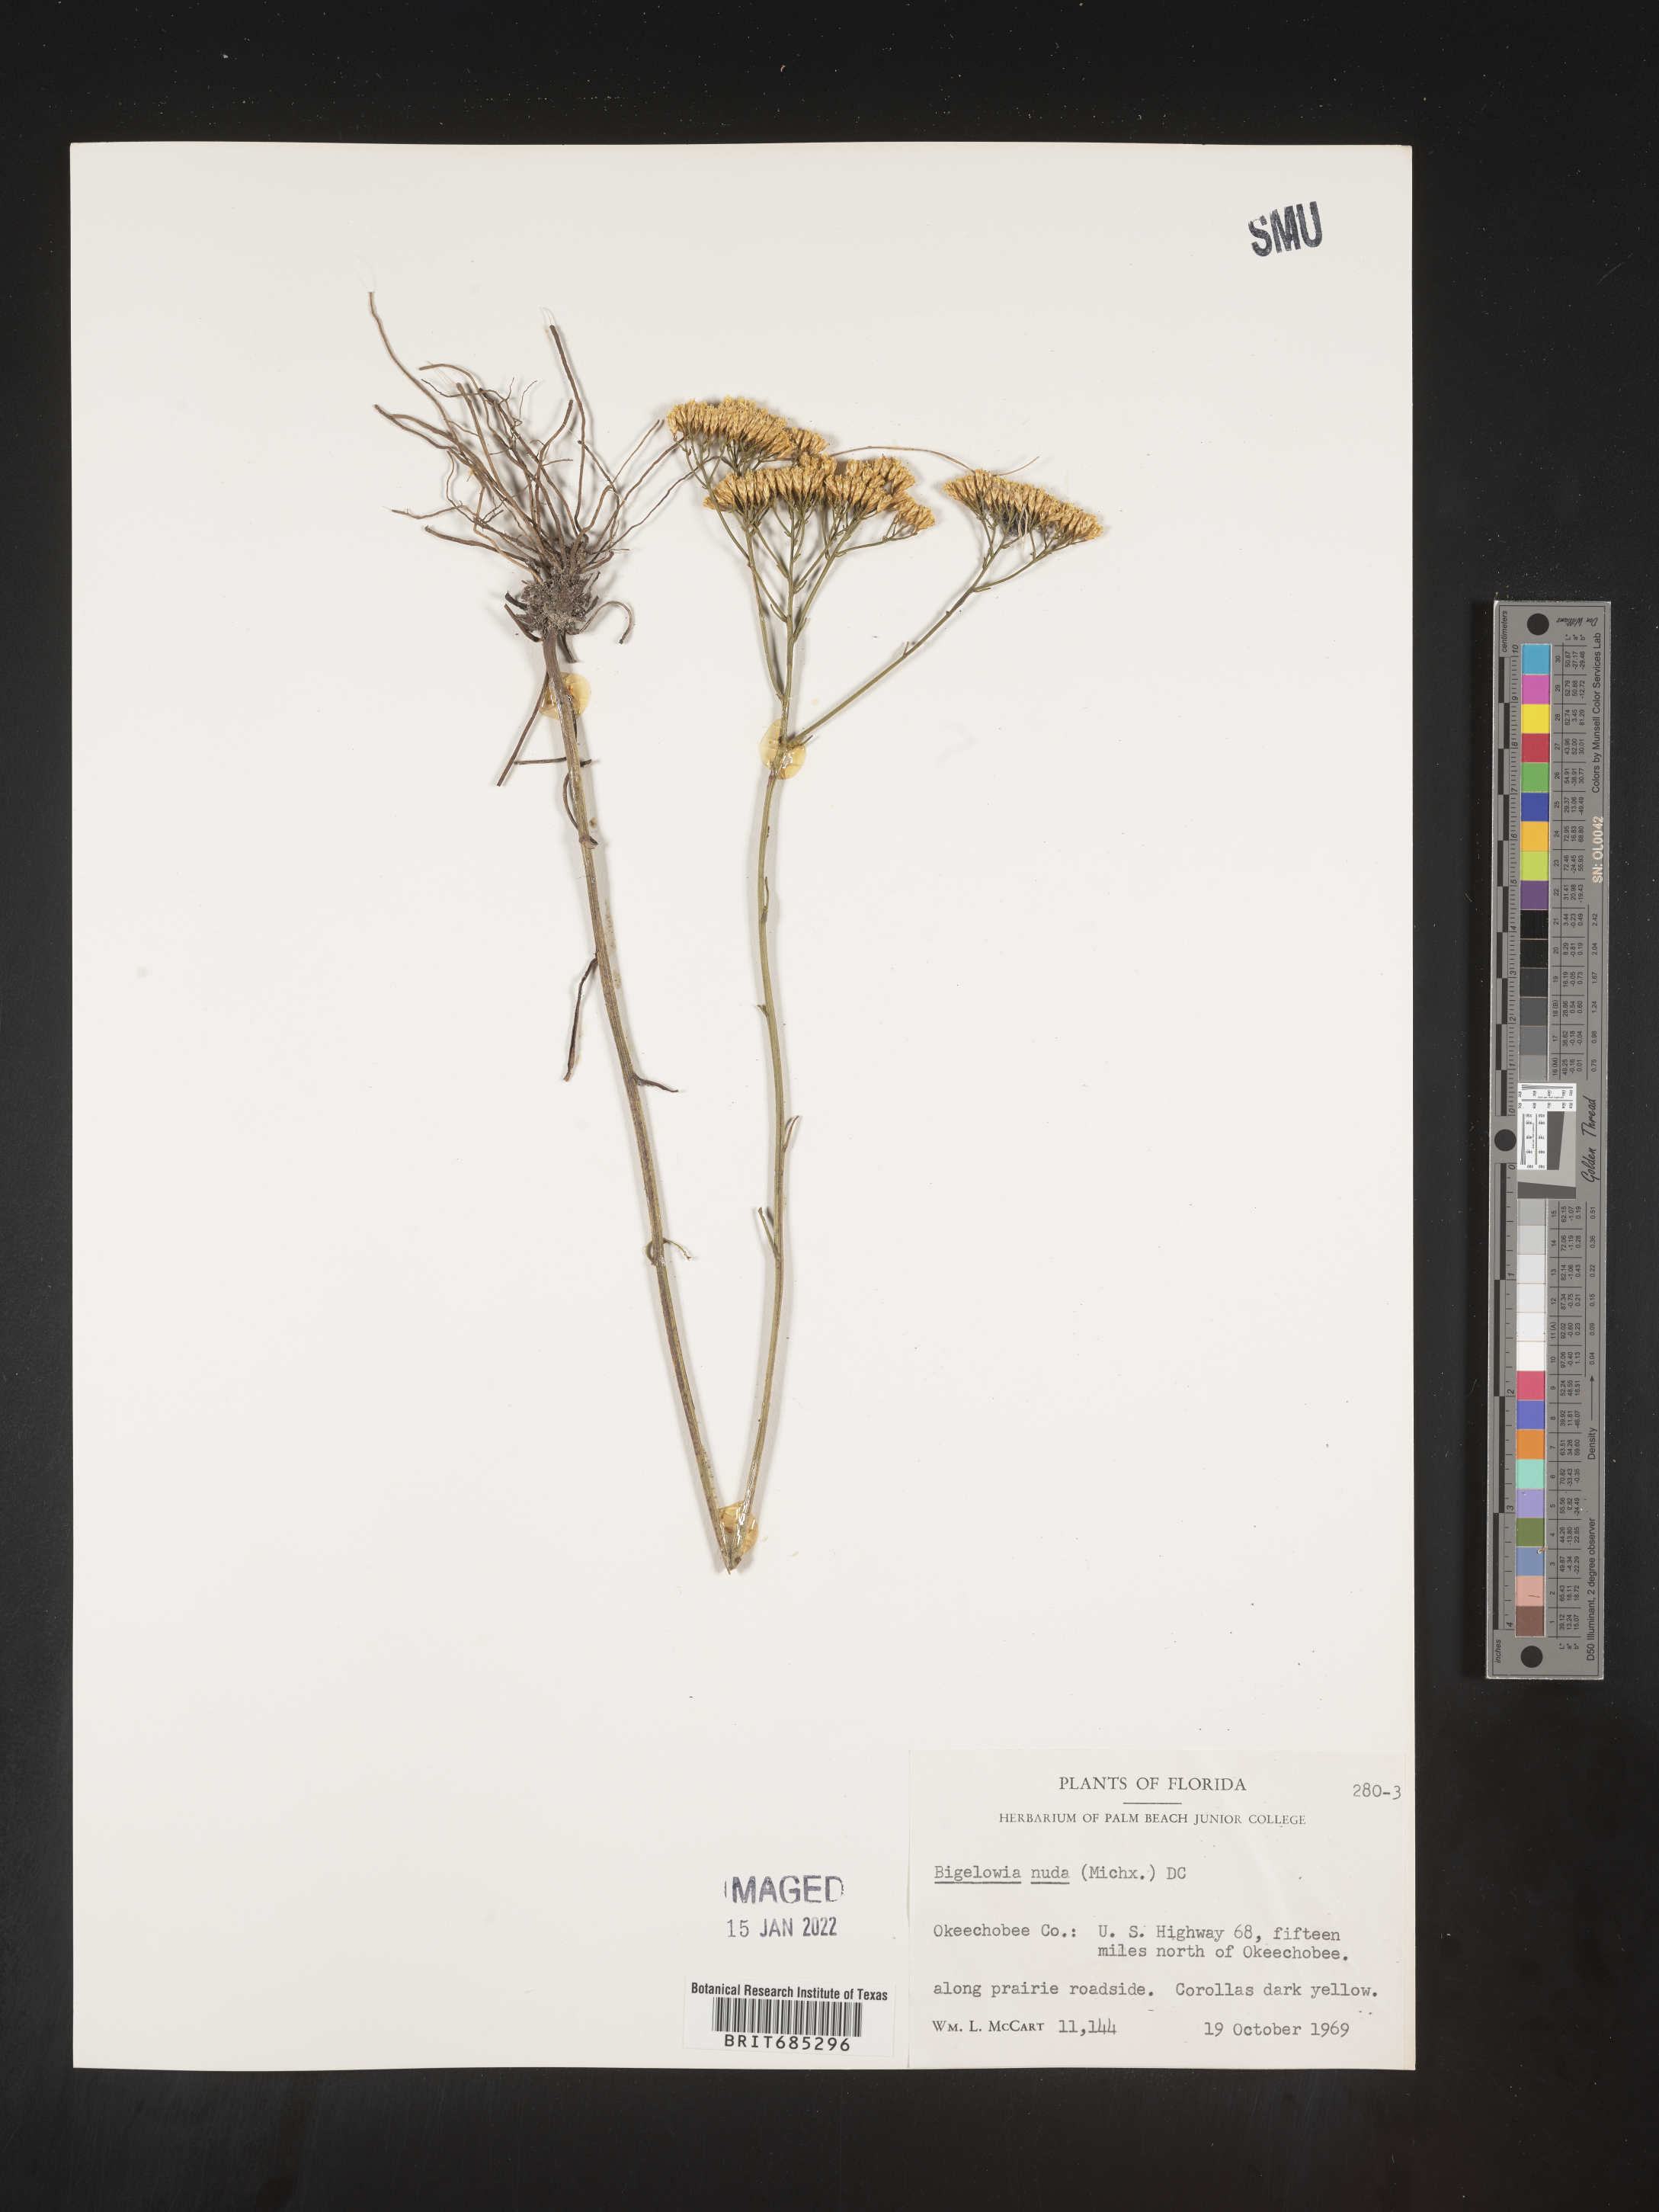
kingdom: Plantae
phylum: Tracheophyta
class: Magnoliopsida
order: Asterales
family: Asteraceae
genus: Bigelowia
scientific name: Bigelowia nudata
